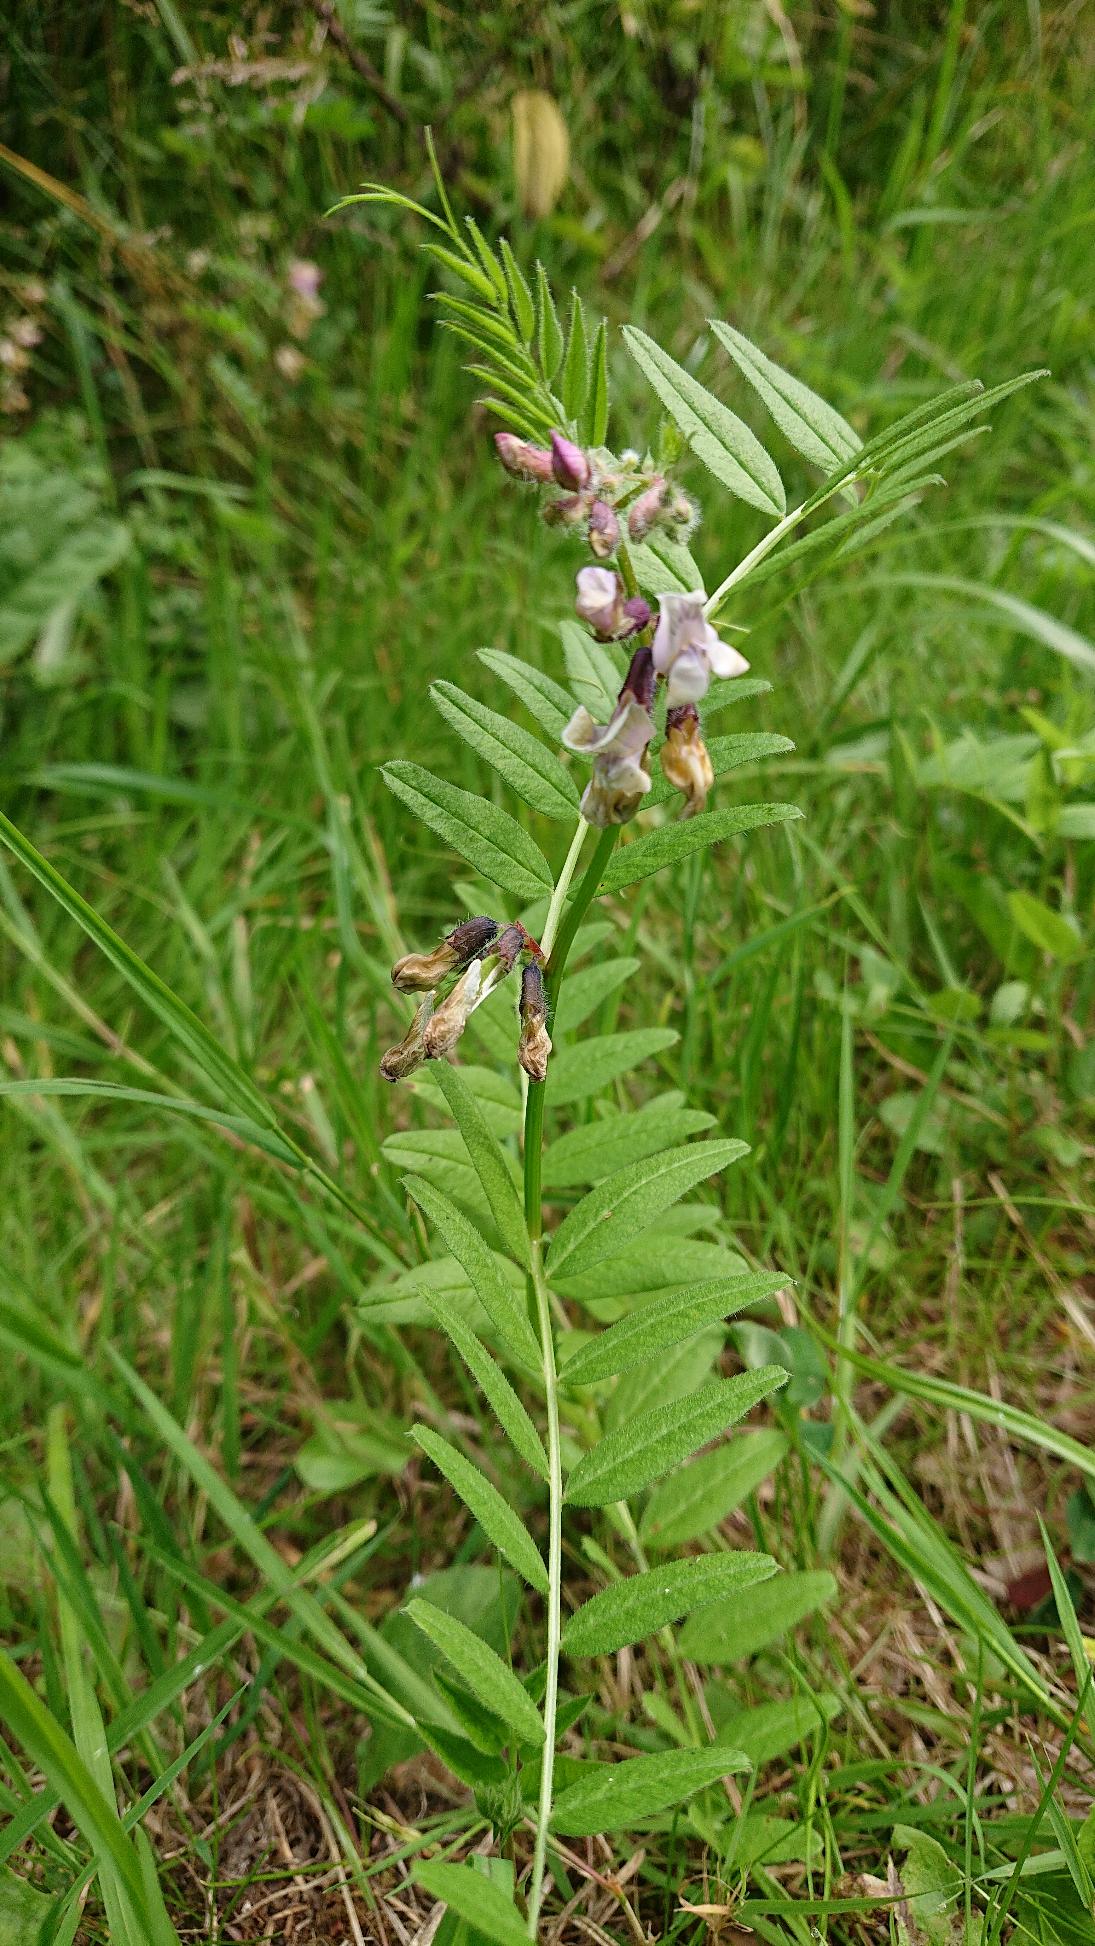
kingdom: Plantae
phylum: Tracheophyta
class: Magnoliopsida
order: Fabales
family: Fabaceae
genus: Vicia
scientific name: Vicia sepium
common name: Gærde-vikke
